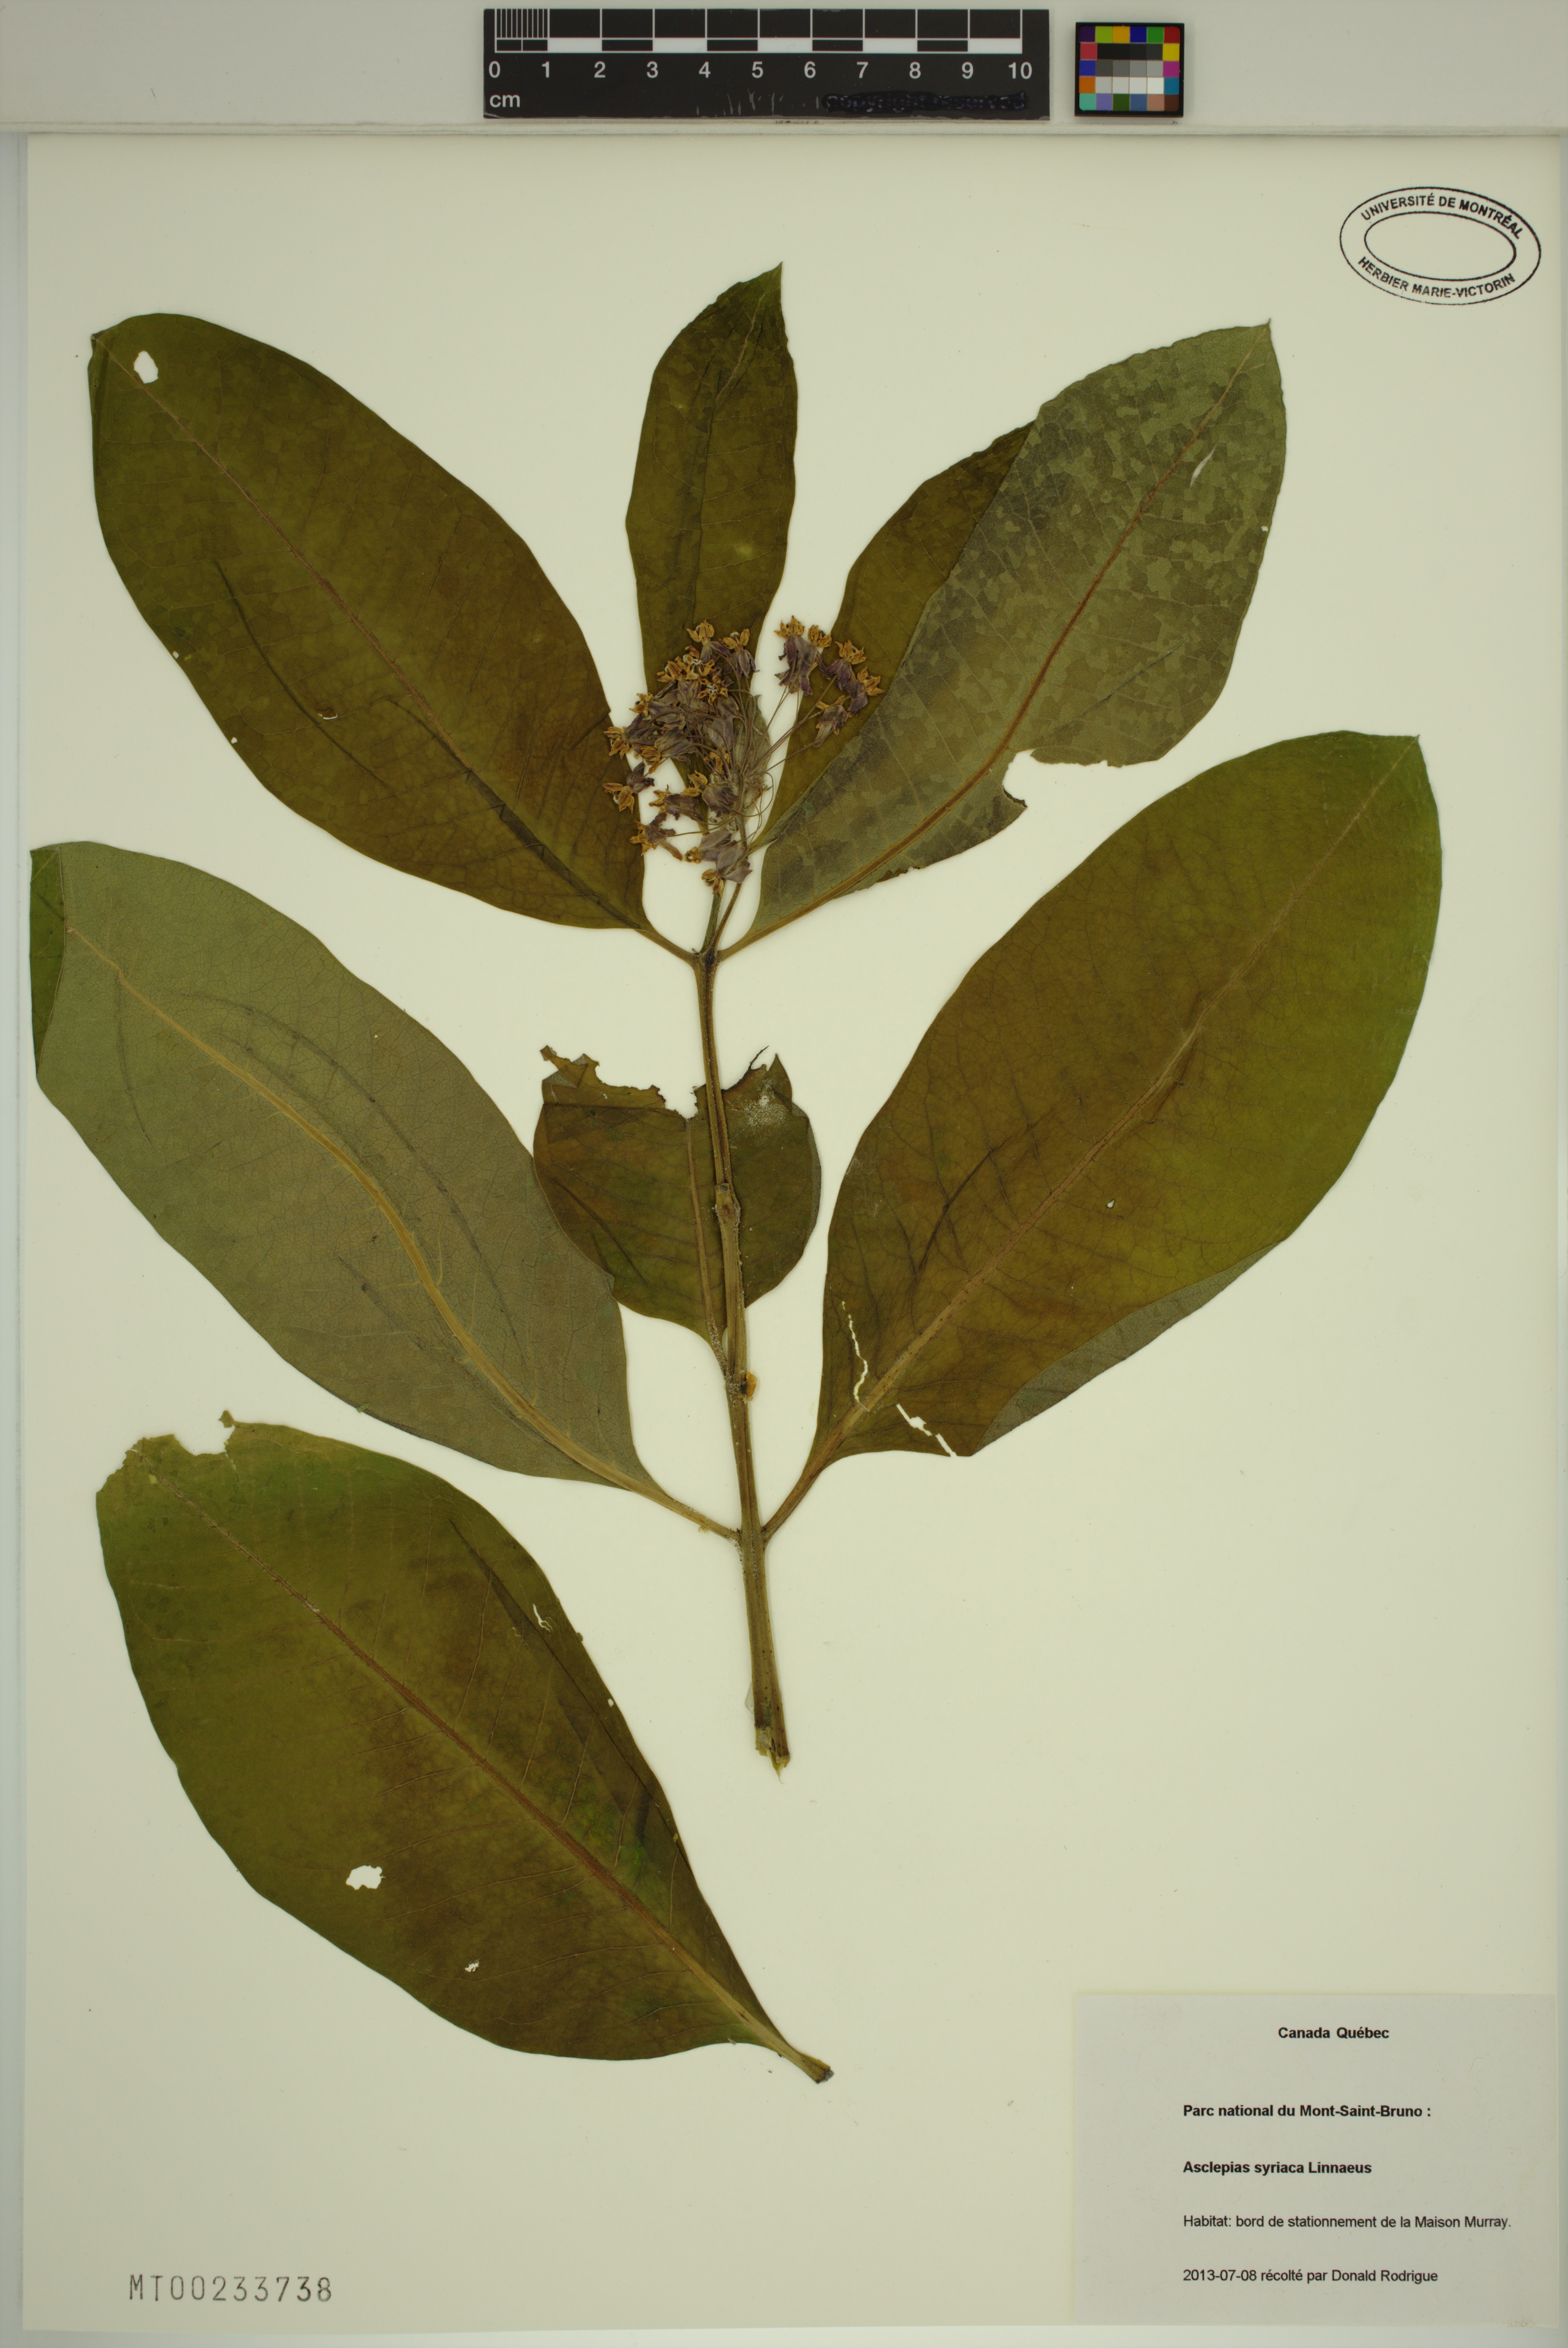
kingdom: Plantae
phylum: Tracheophyta
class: Magnoliopsida
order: Gentianales
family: Apocynaceae
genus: Asclepias
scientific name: Asclepias syriaca
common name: Common milkweed
